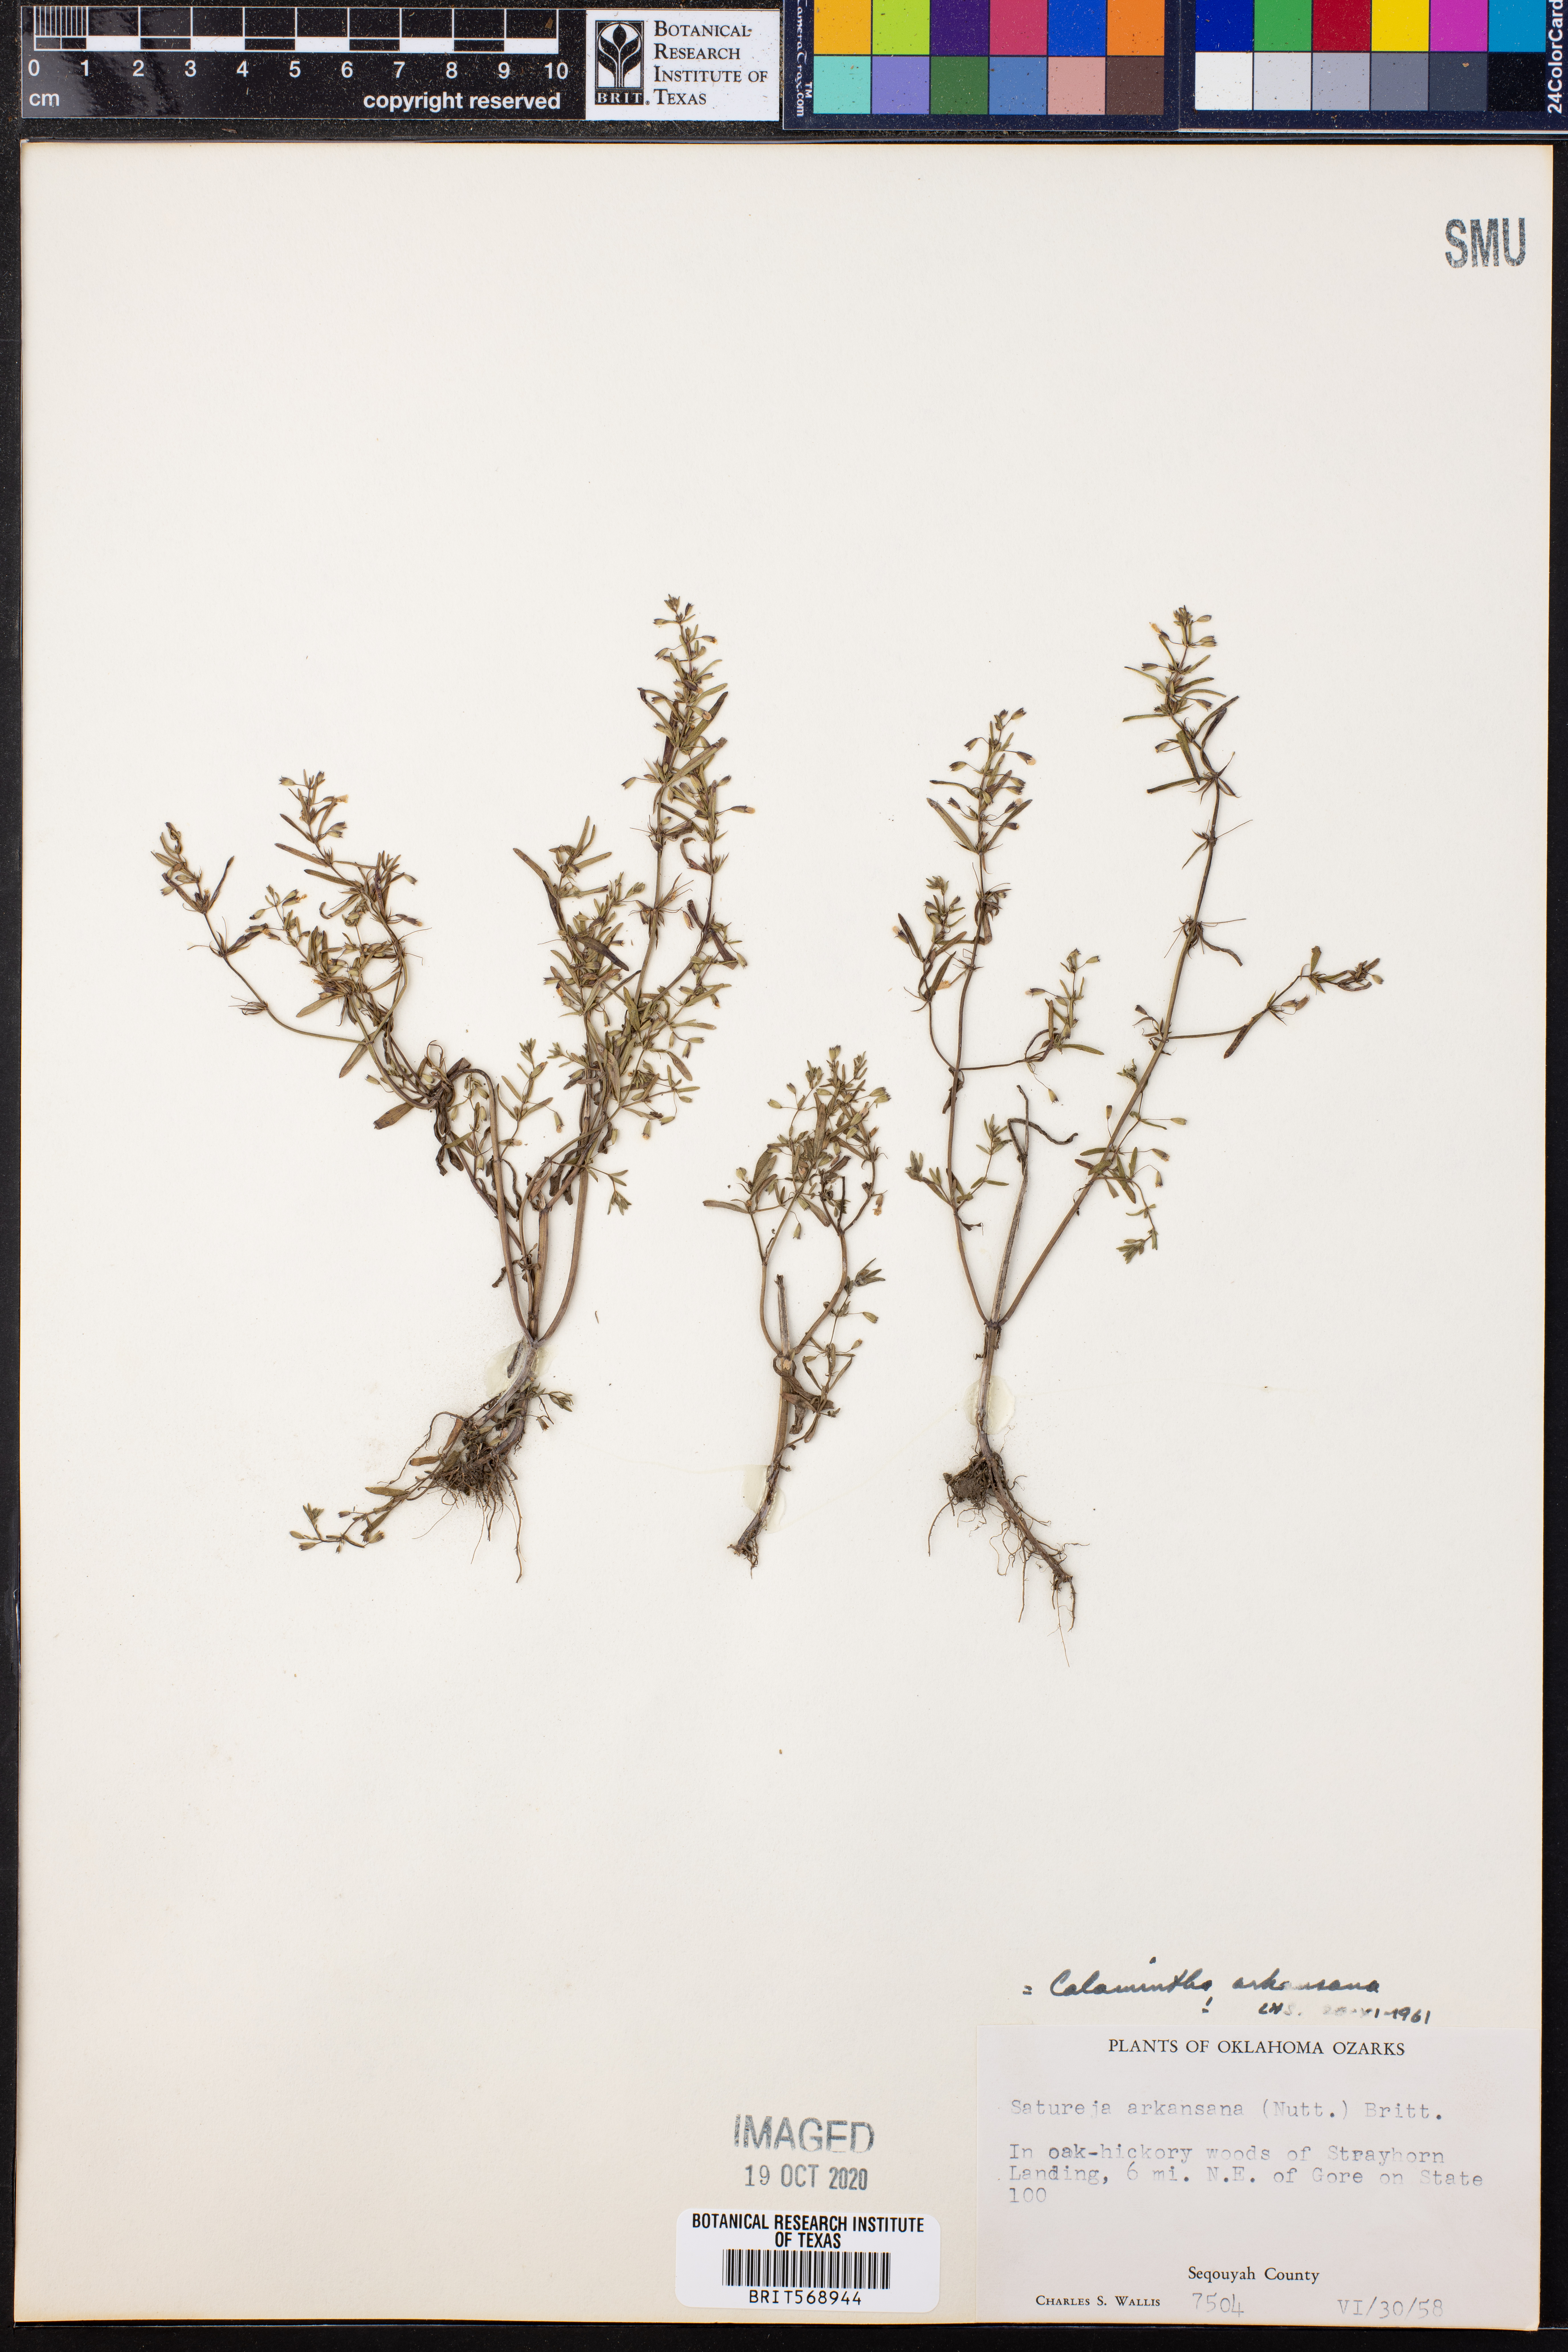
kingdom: Plantae
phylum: Tracheophyta
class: Magnoliopsida
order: Lamiales
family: Lamiaceae
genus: Clinopodium
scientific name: Clinopodium arkansanum
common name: Limestone calamint
